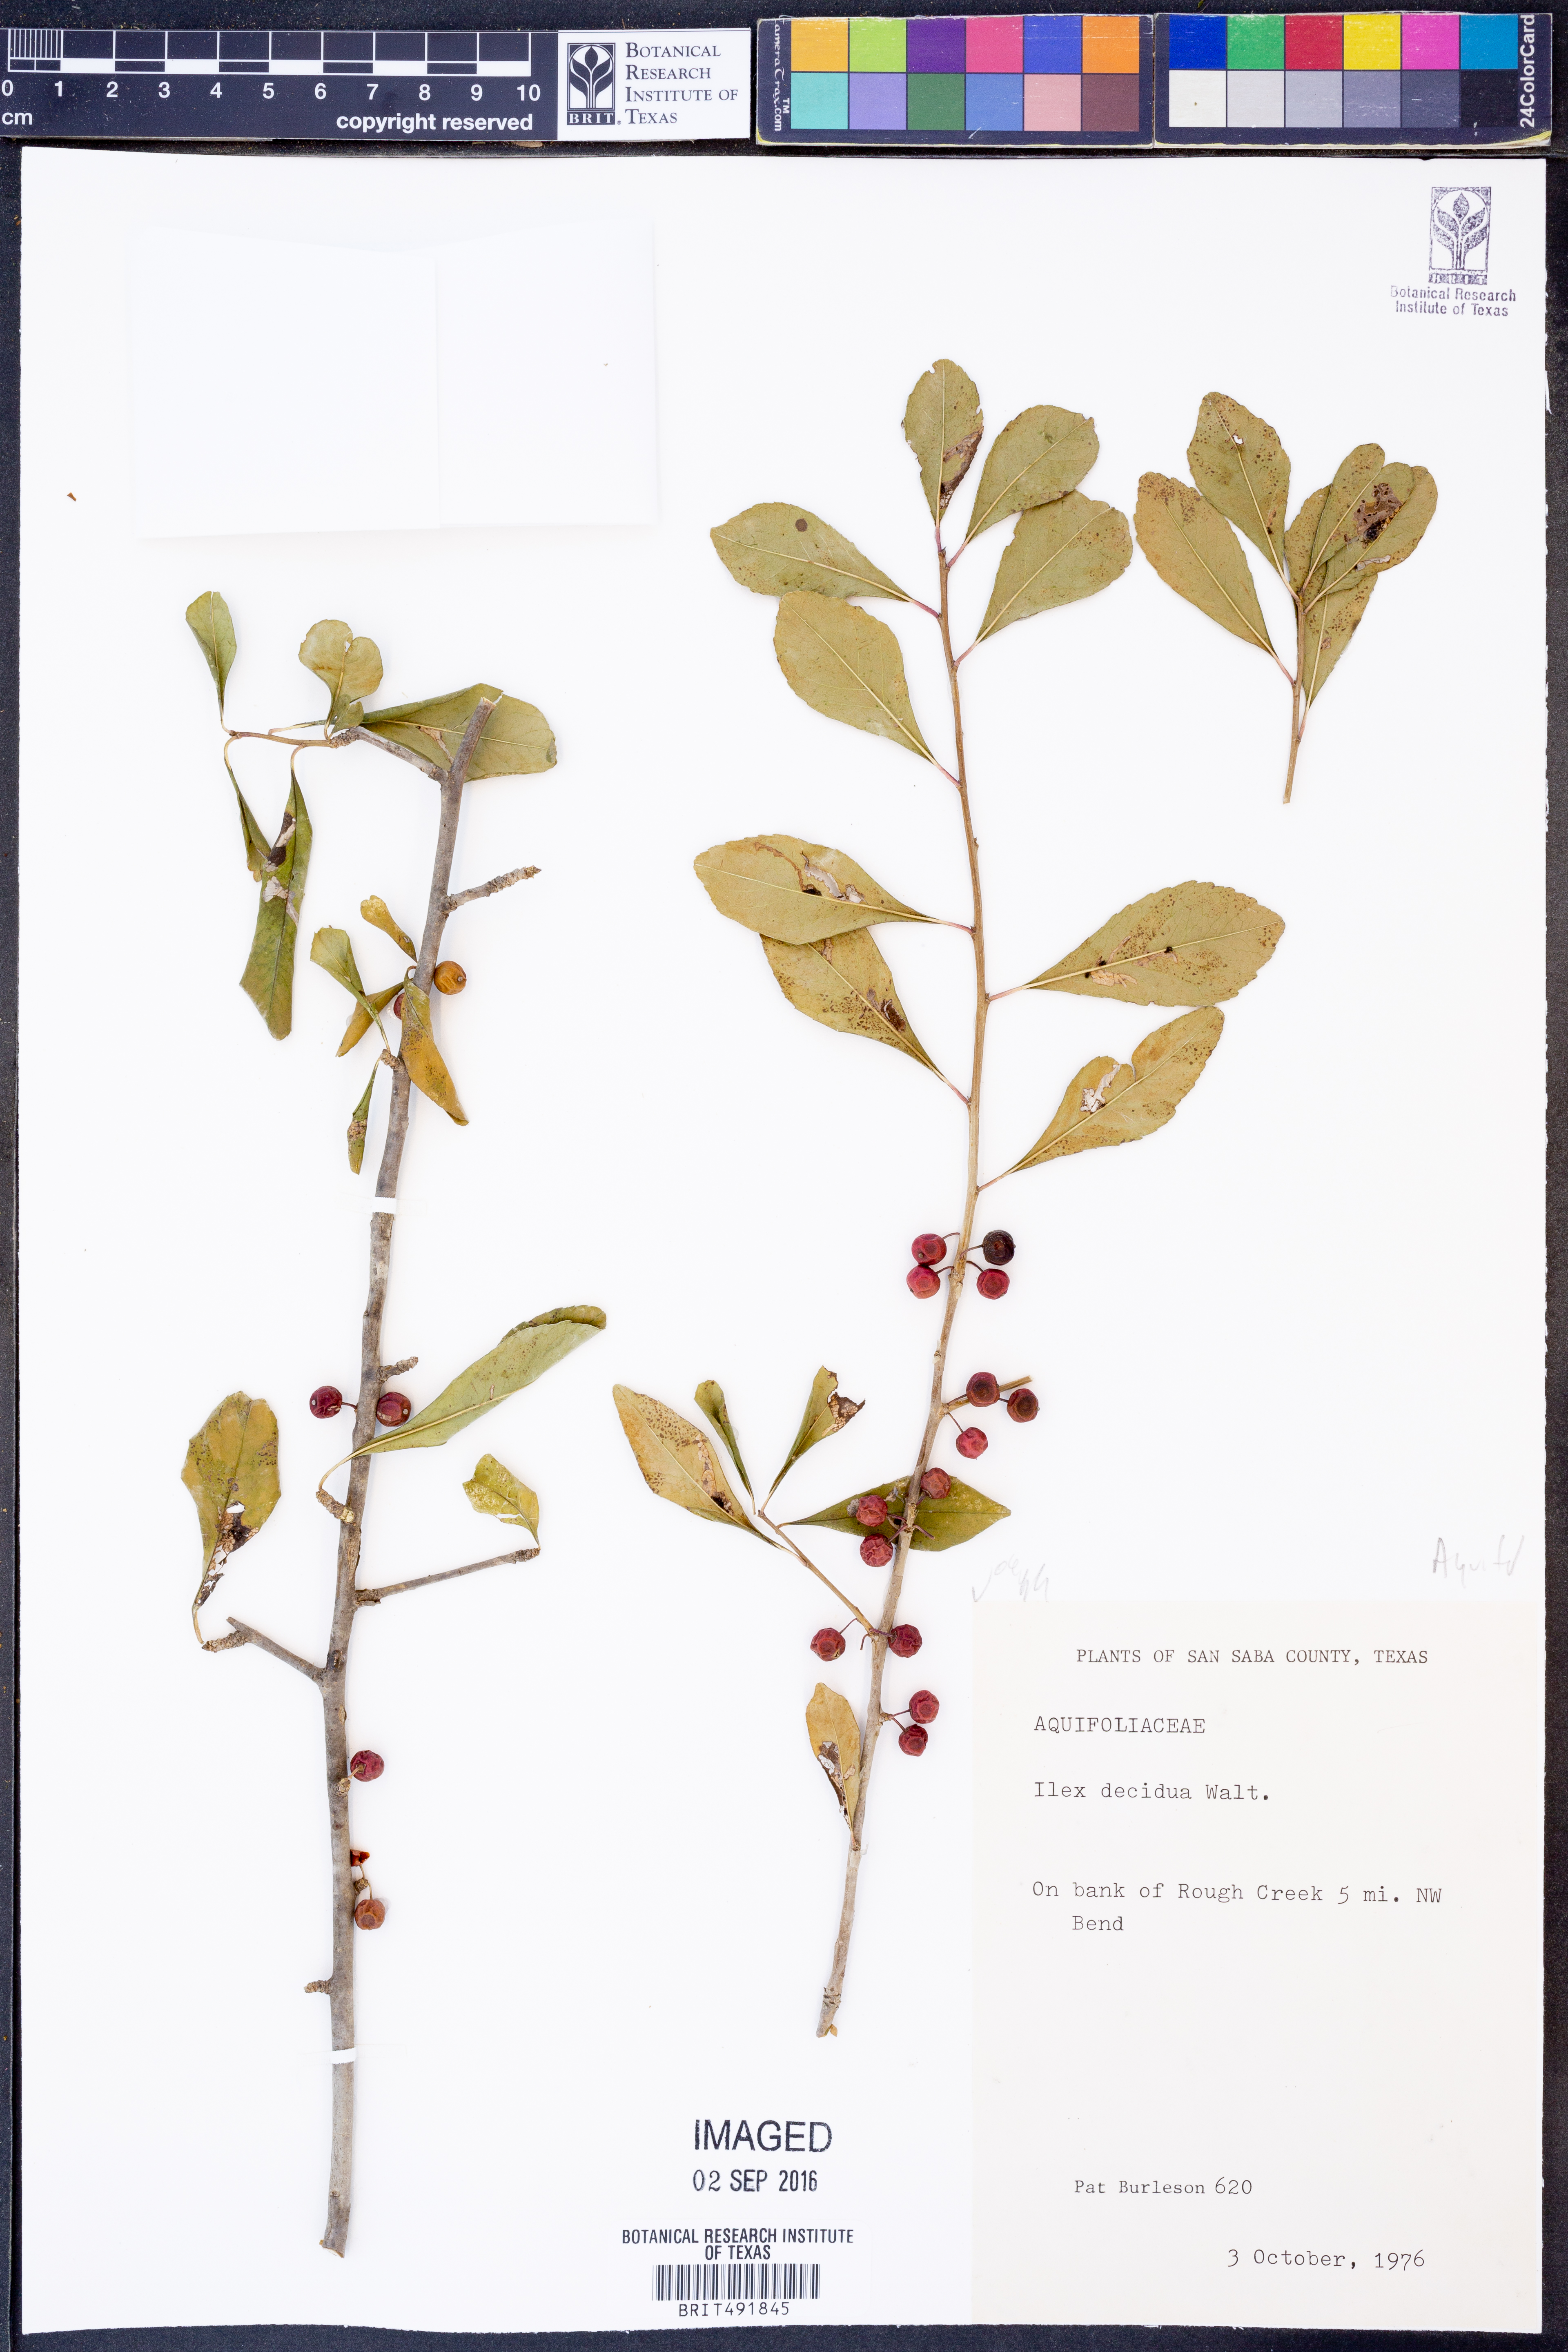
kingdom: Plantae
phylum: Tracheophyta
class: Magnoliopsida
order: Aquifoliales
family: Aquifoliaceae
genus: Ilex
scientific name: Ilex decidua
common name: Possum-haw
